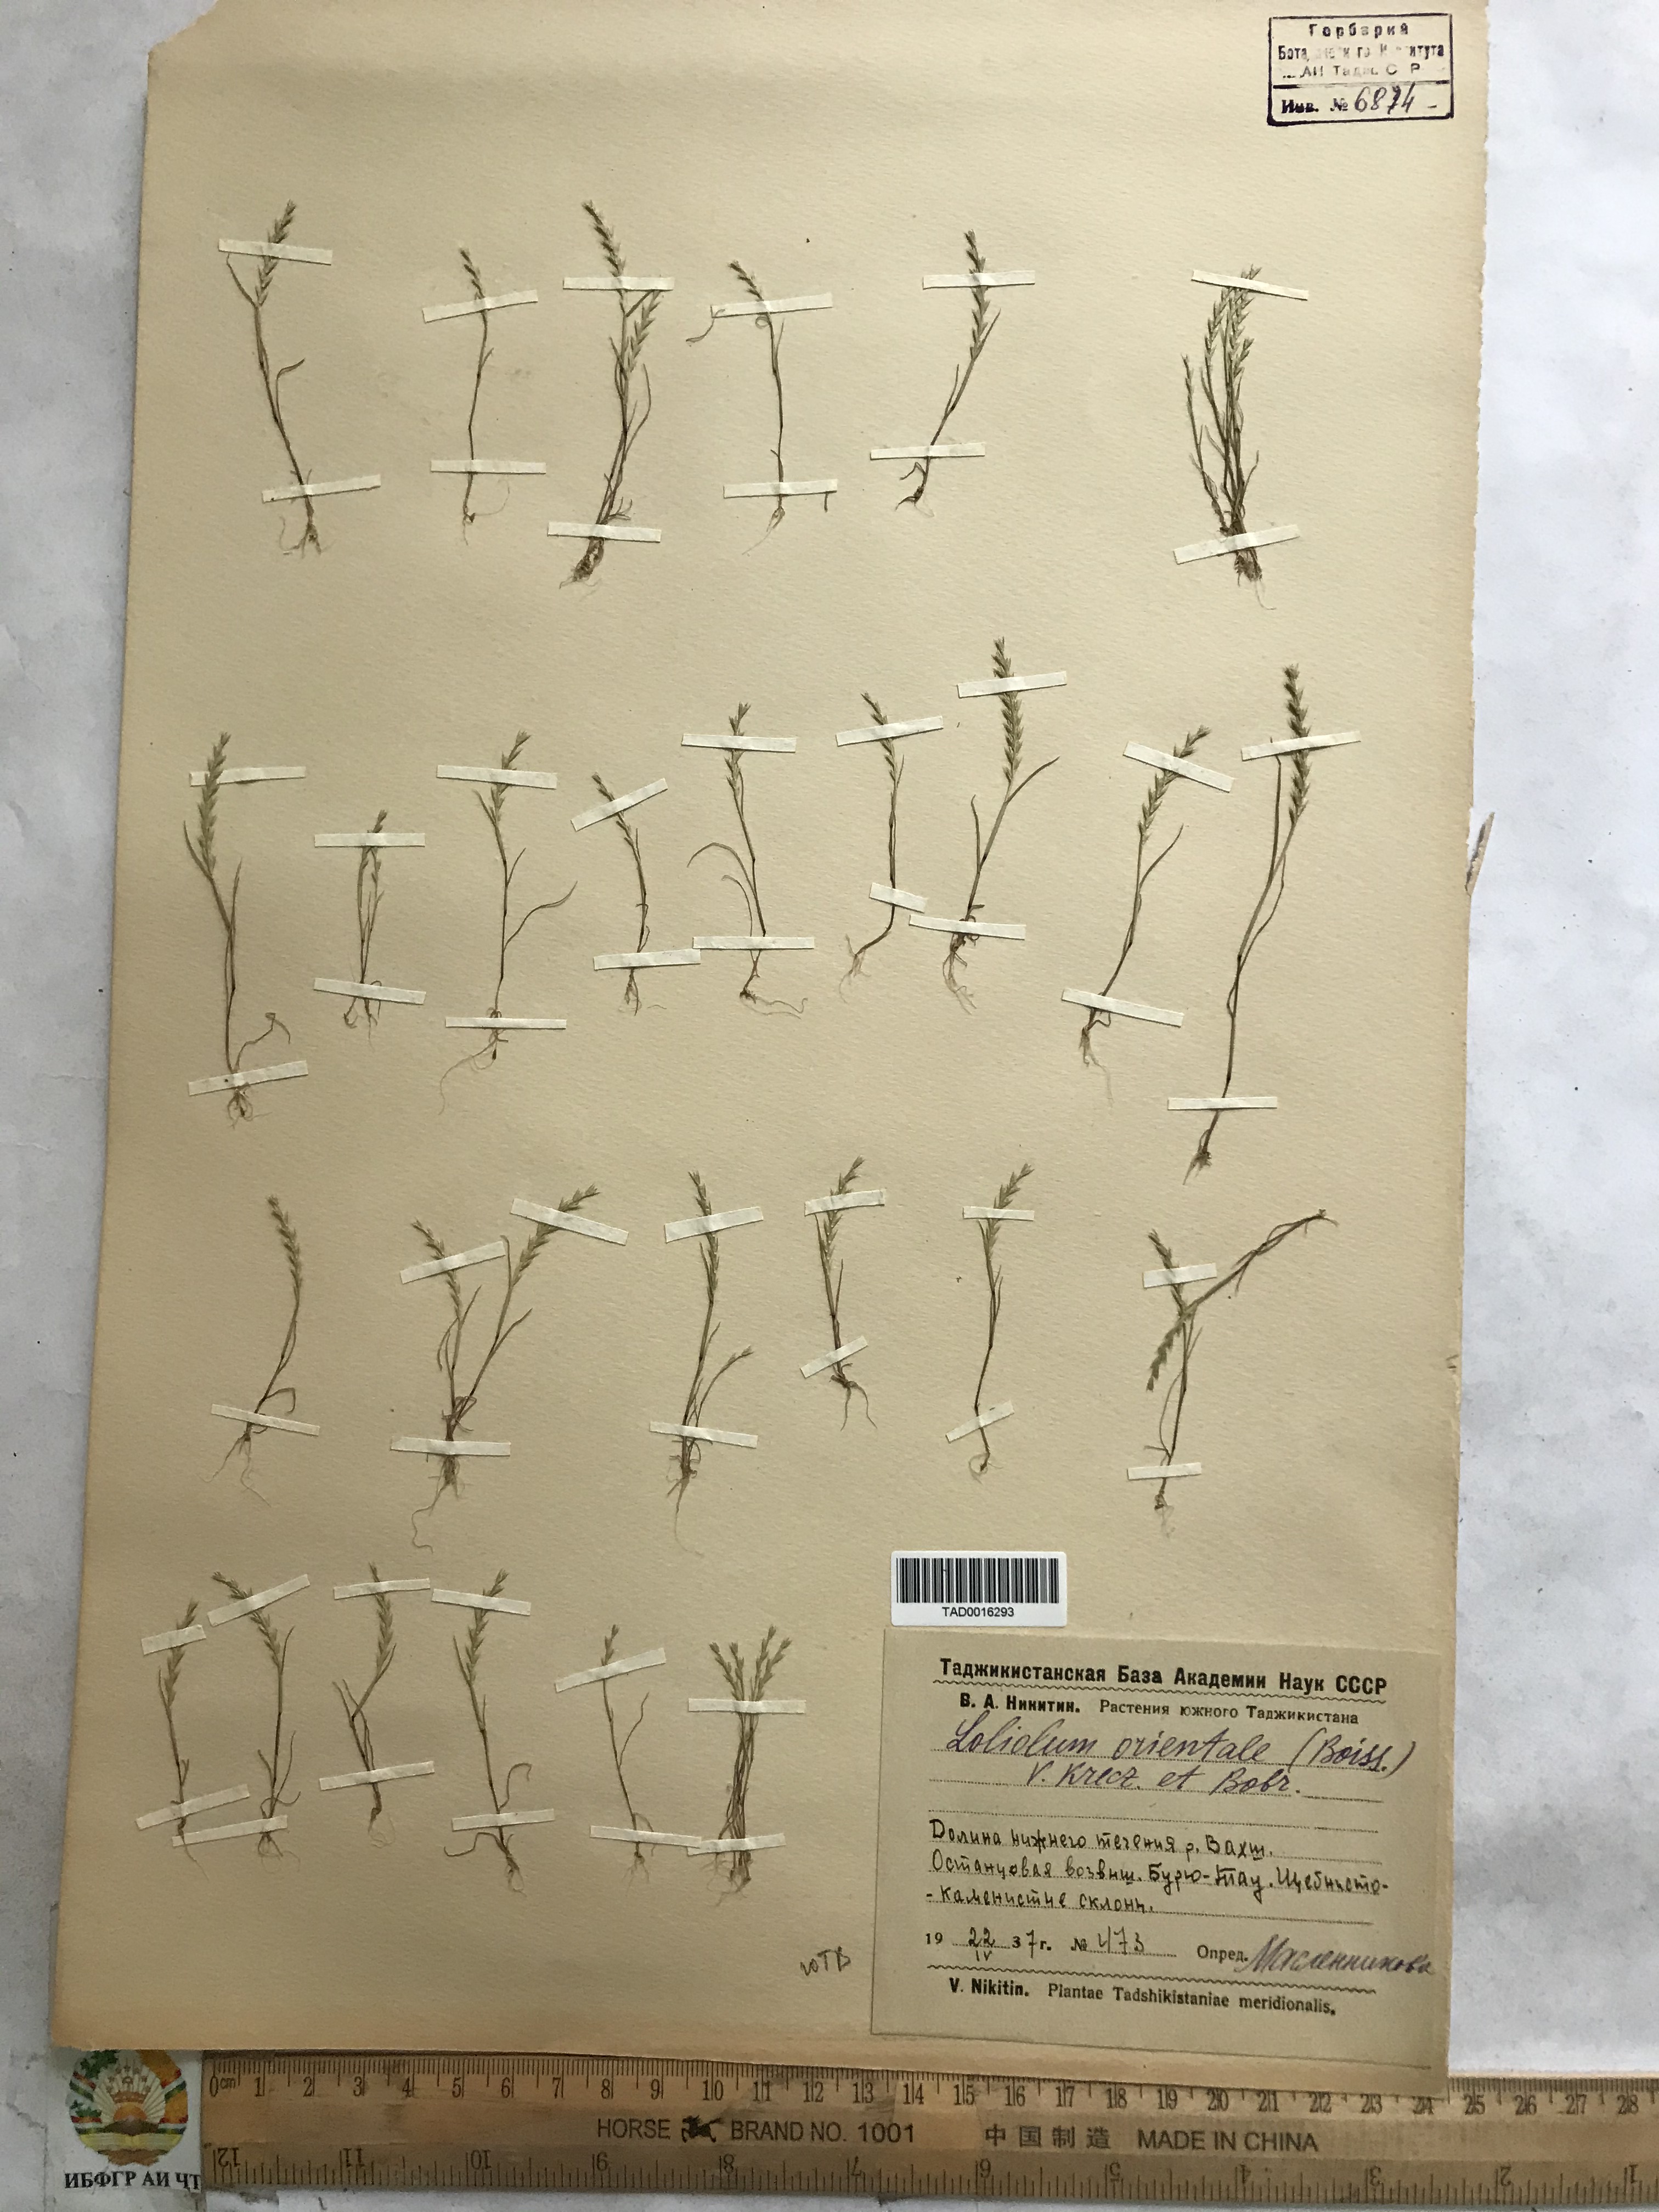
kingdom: Plantae
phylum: Tracheophyta
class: Liliopsida
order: Poales
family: Poaceae
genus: Festuca
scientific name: Festuca orientalis
